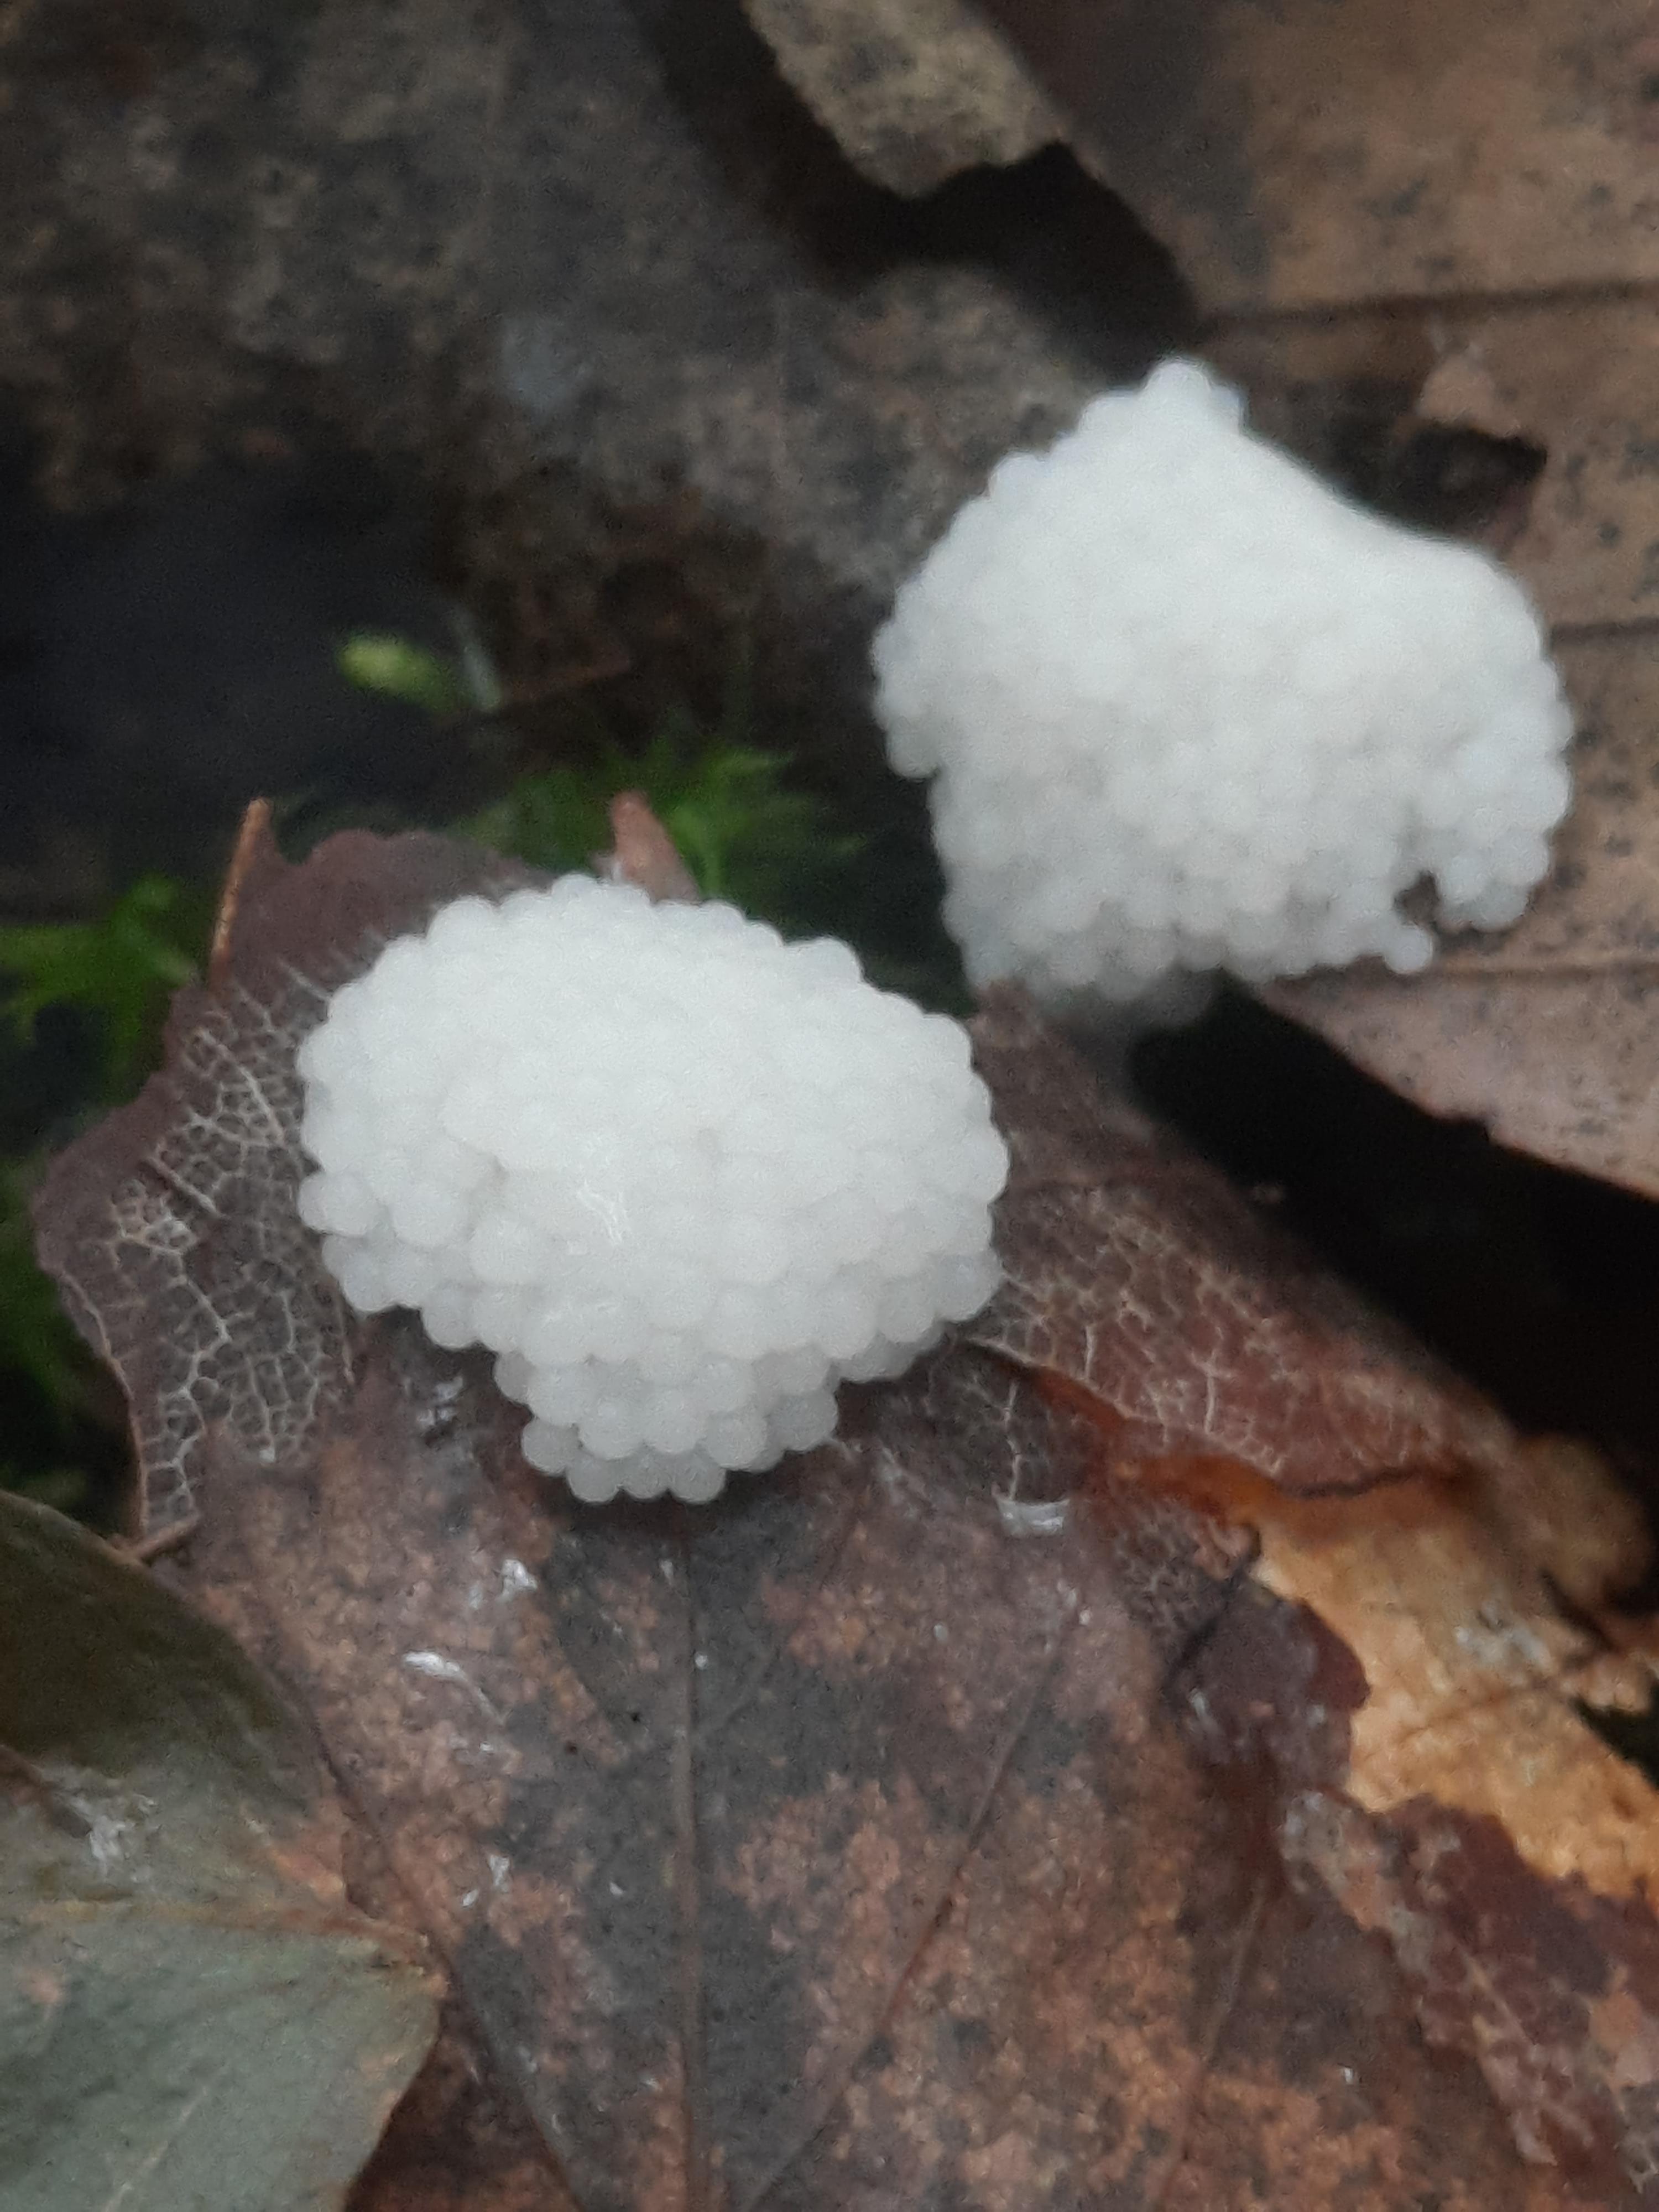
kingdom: Protozoa
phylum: Mycetozoa
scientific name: Mycetozoa
